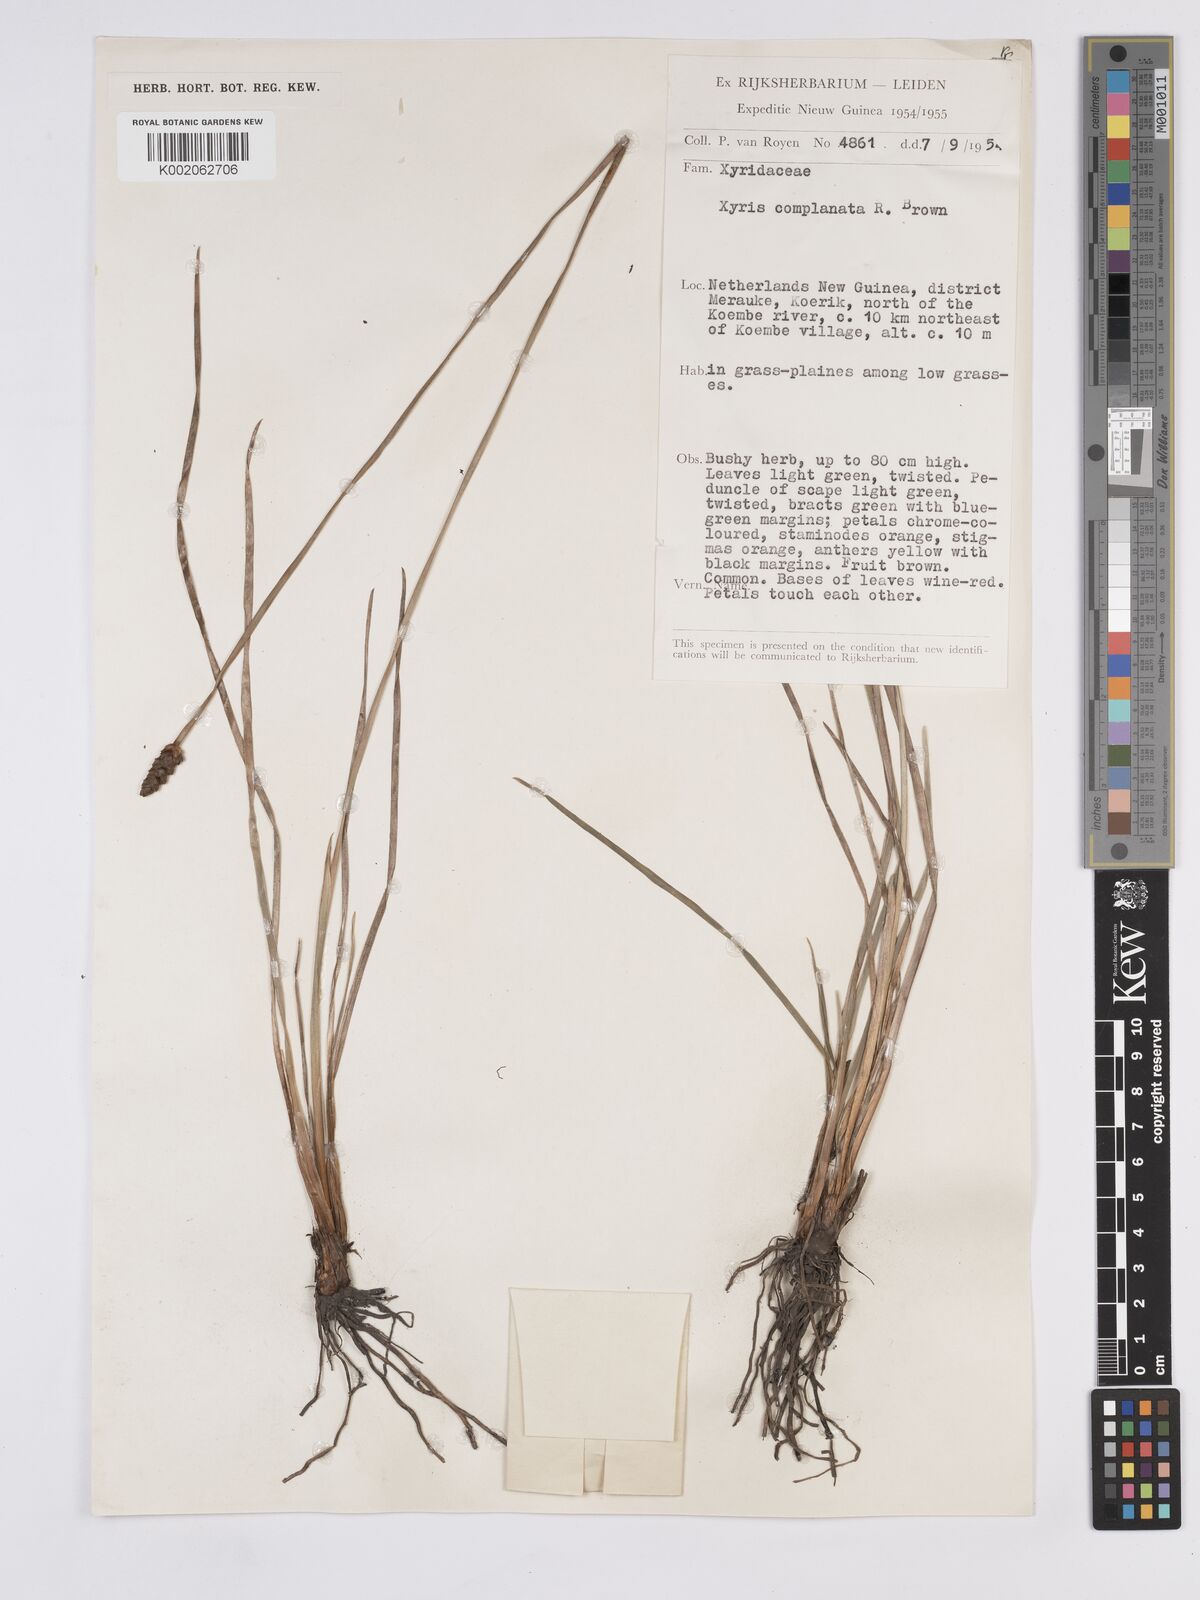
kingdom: Plantae
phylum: Tracheophyta
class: Liliopsida
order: Poales
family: Xyridaceae
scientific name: Xyridaceae
